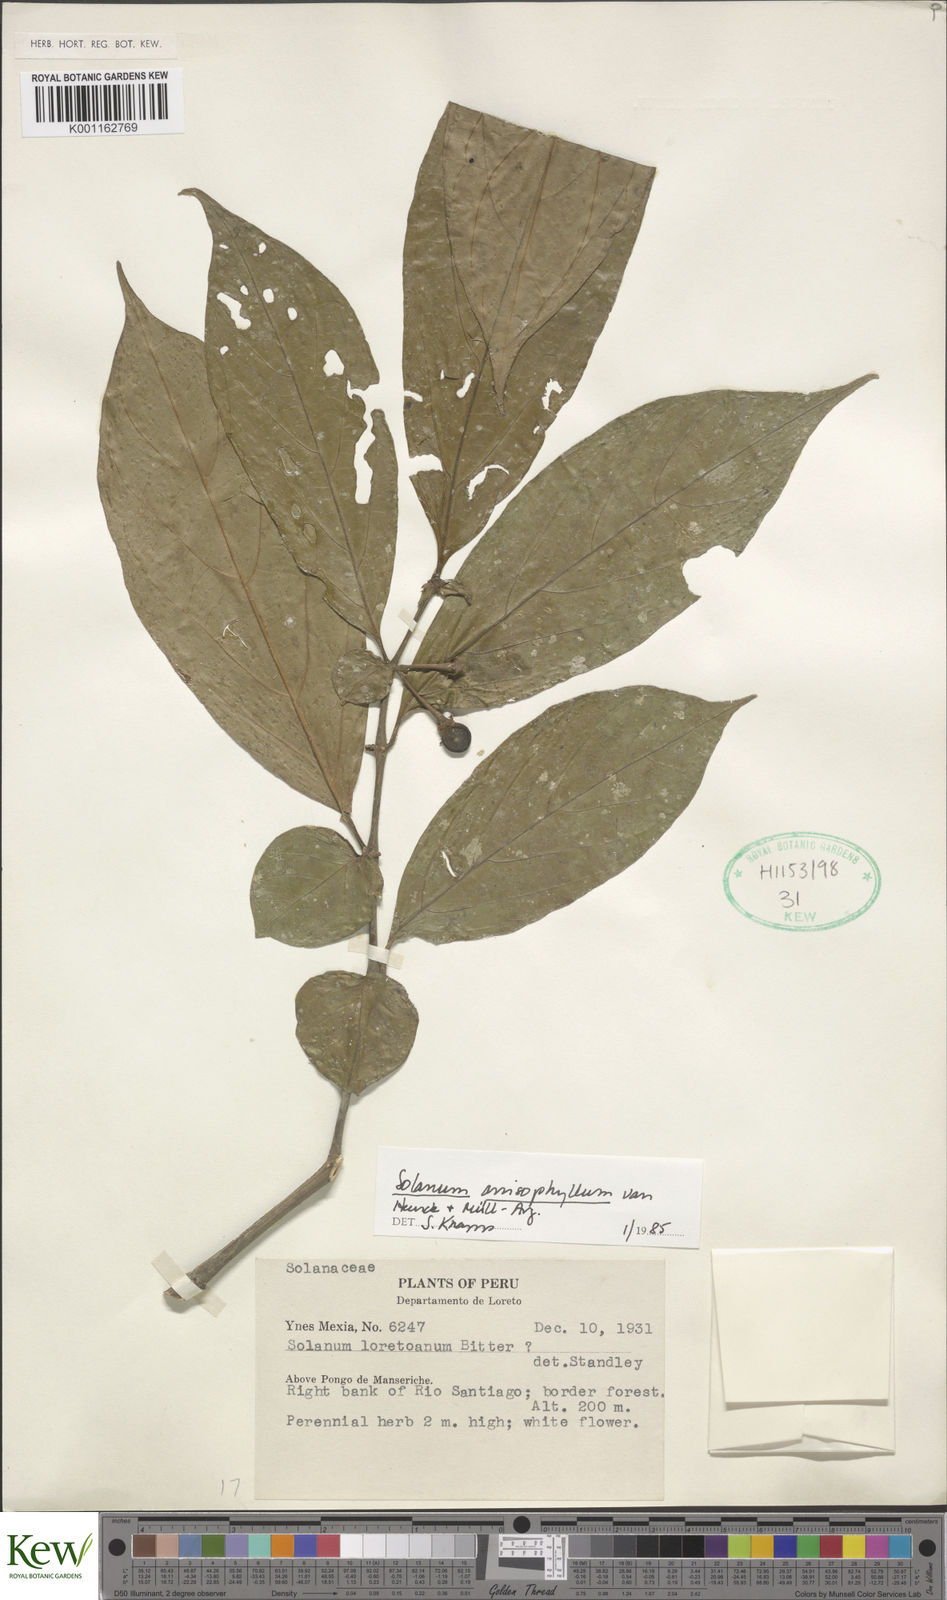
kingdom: Plantae
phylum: Tracheophyta
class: Magnoliopsida
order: Solanales
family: Solanaceae
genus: Solanum
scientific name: Solanum
